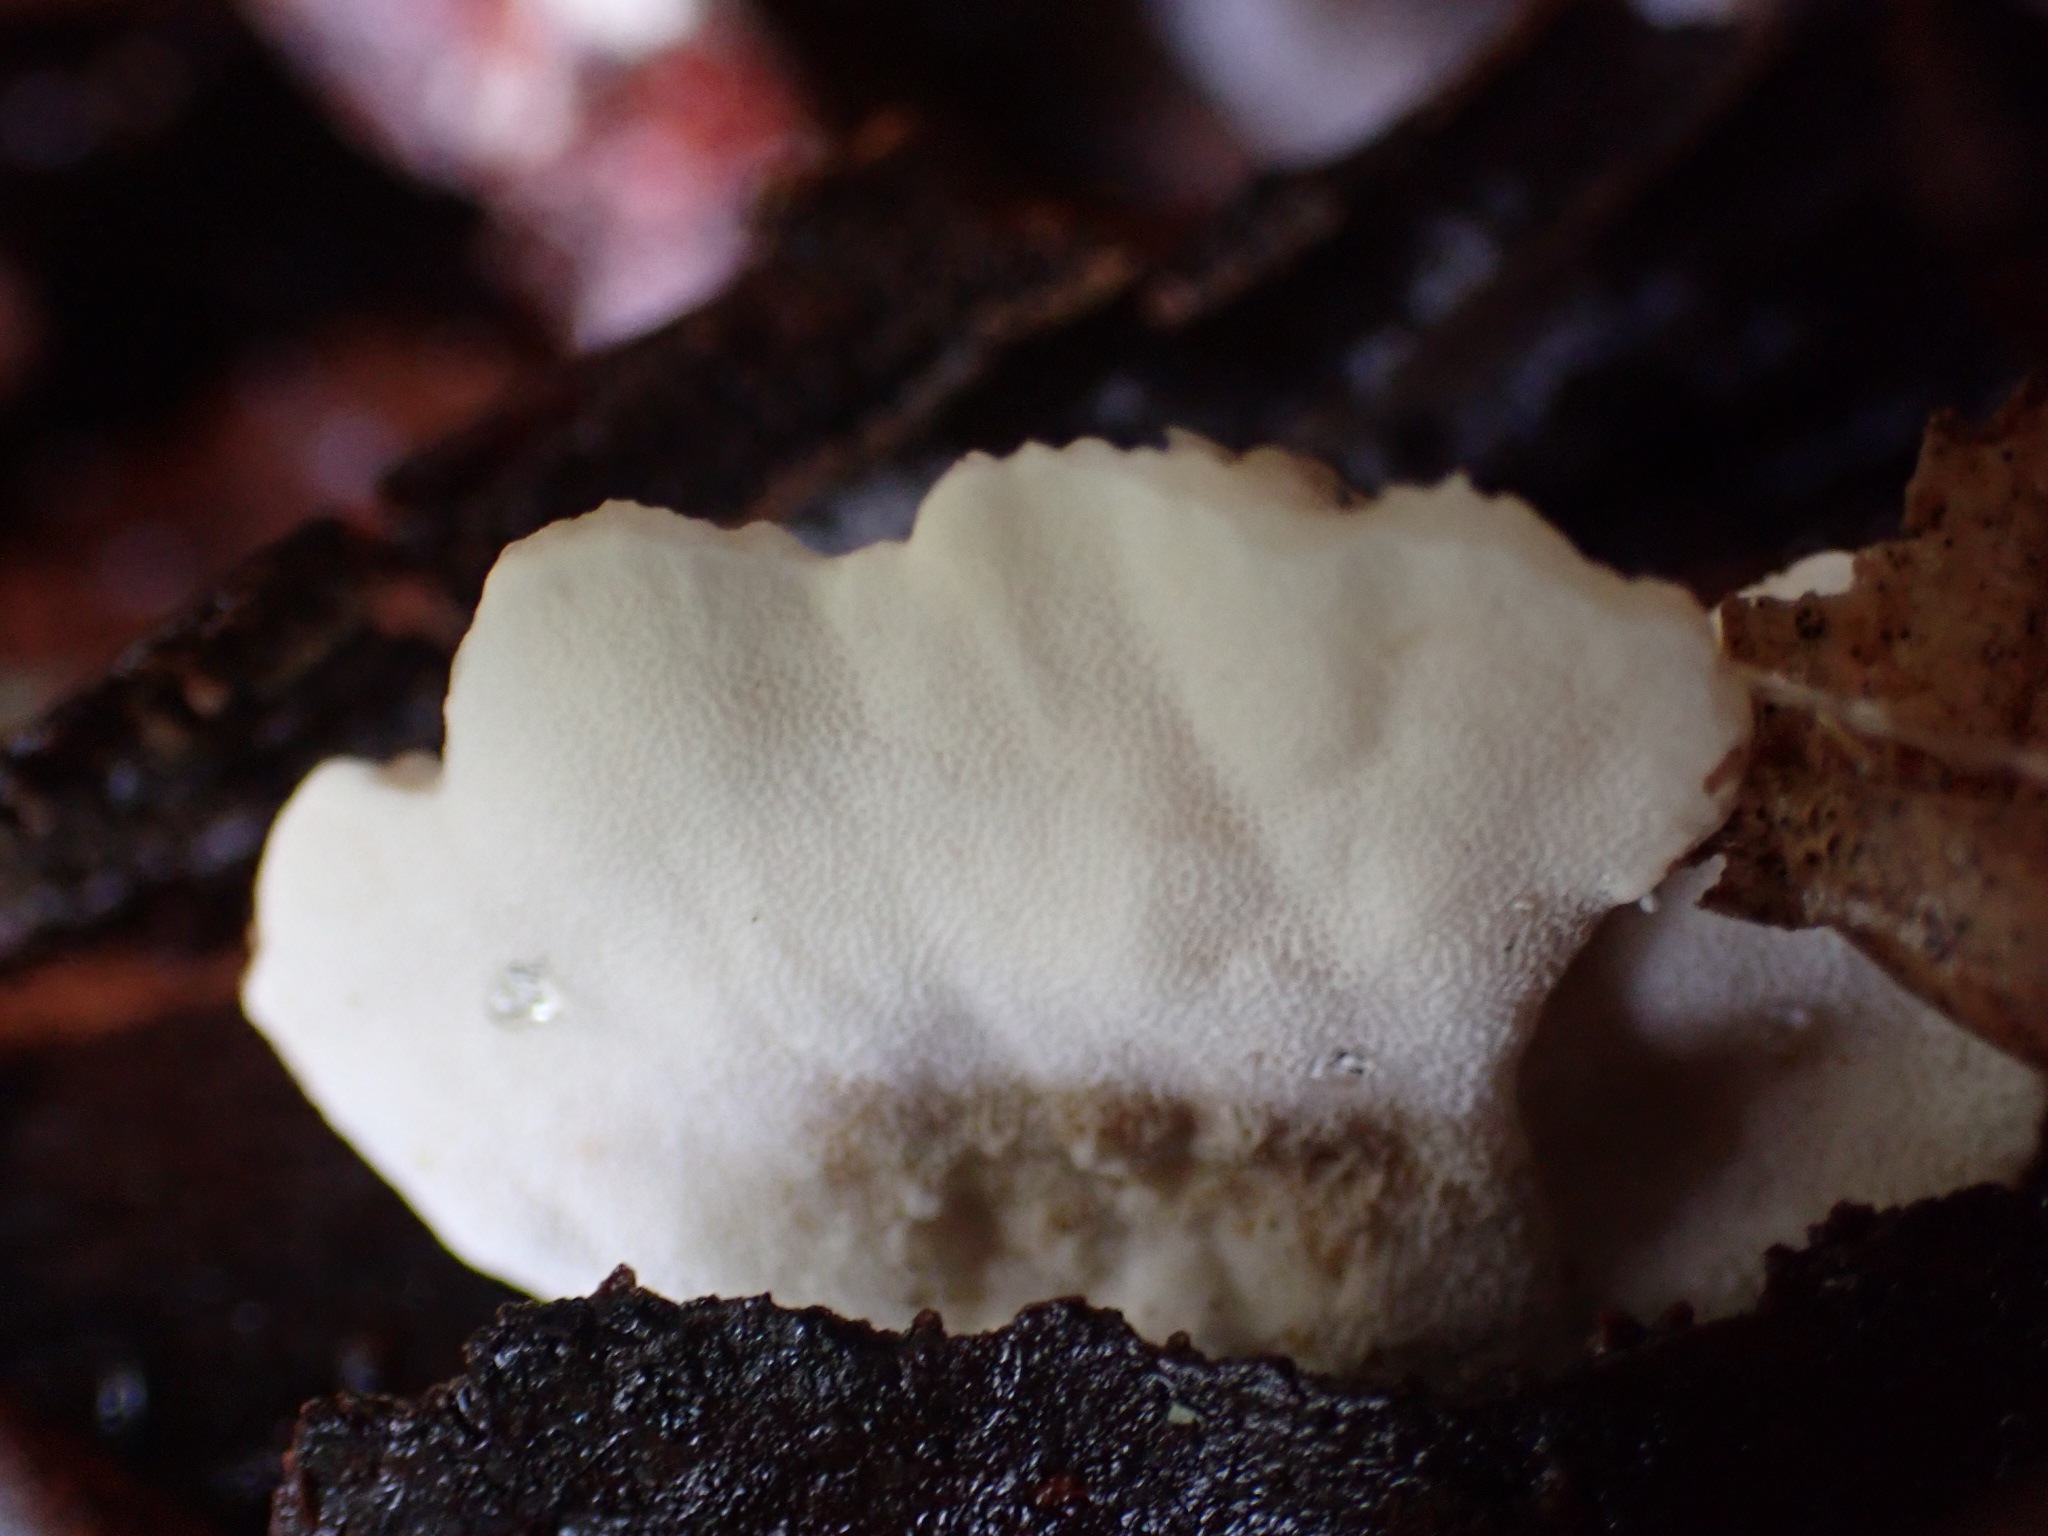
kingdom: Fungi
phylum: Basidiomycota
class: Agaricomycetes
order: Polyporales
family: Polyporaceae
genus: Trametes
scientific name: Trametes versicolor
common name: broget læderporesvamp
